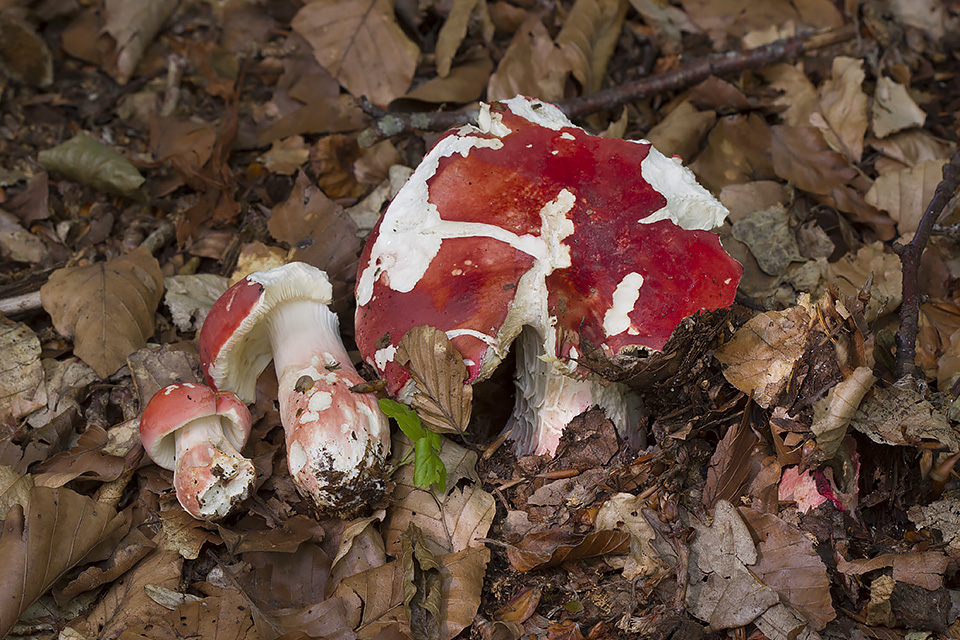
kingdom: Fungi
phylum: Basidiomycota
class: Agaricomycetes
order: Russulales
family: Russulaceae
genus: Russula
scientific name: Russula rosea
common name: fastkødet skørhat
